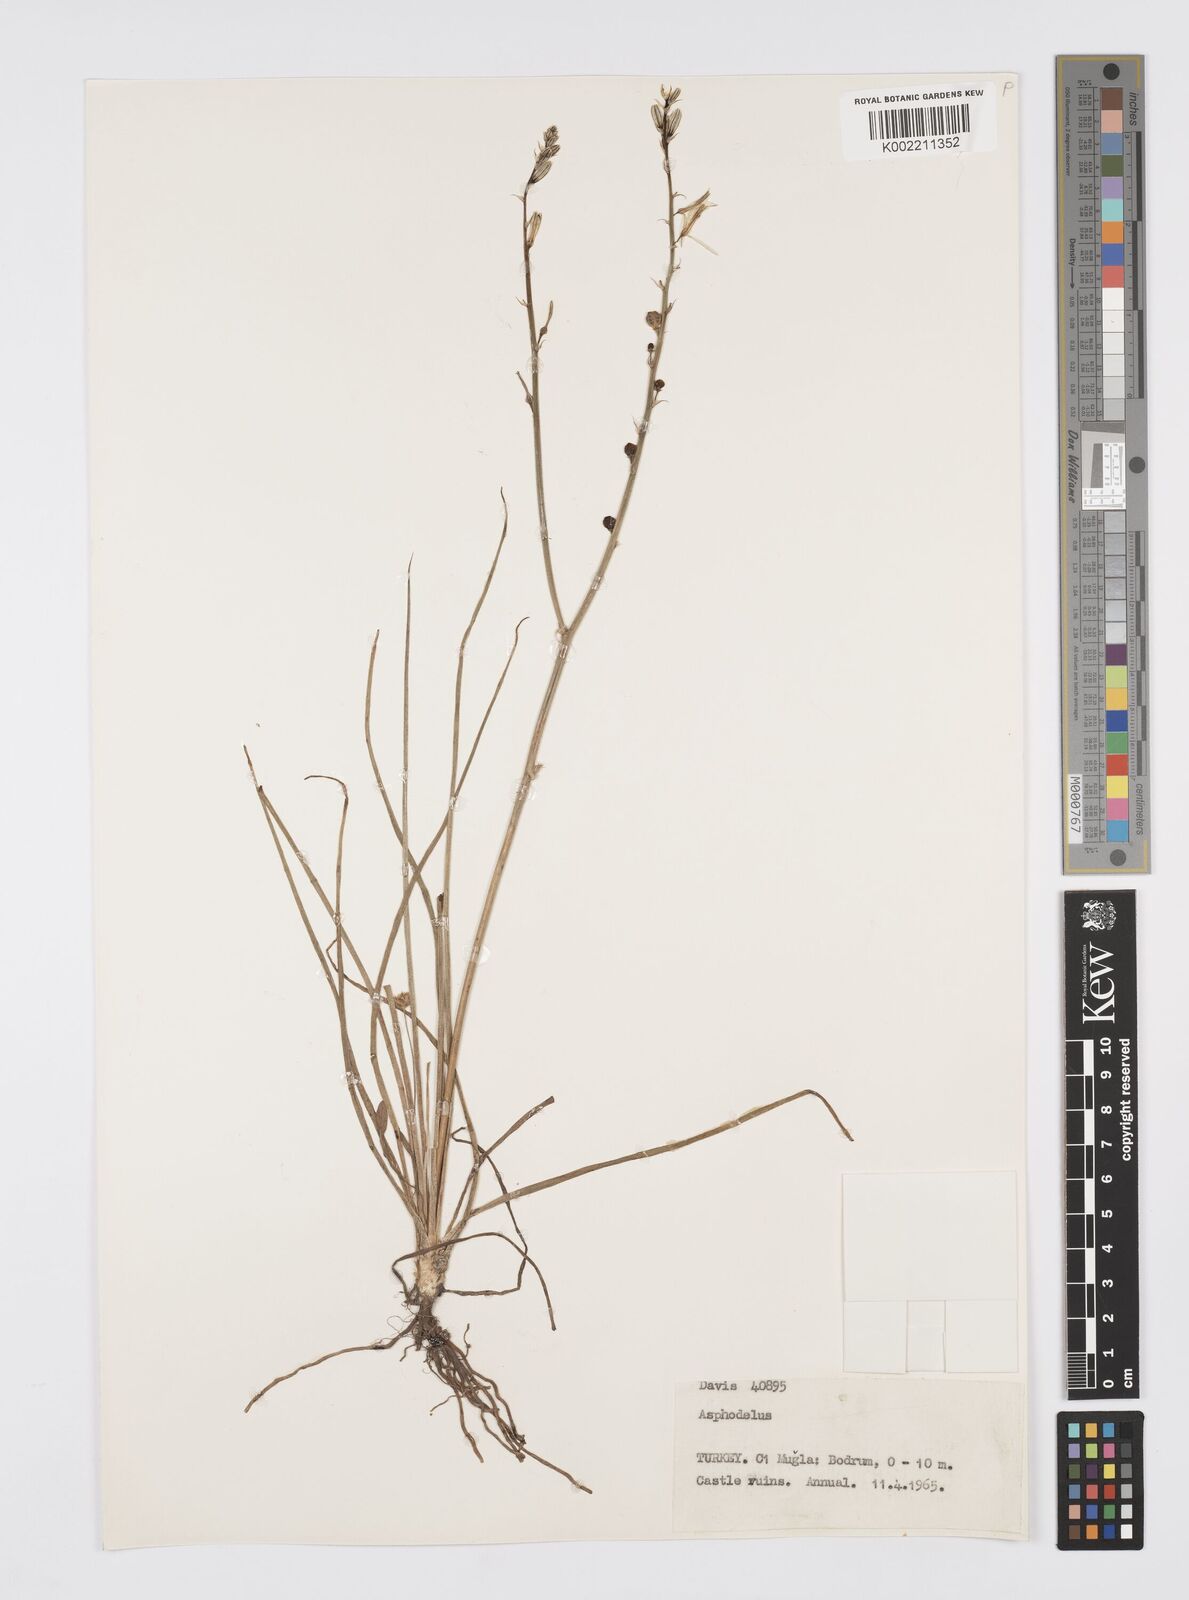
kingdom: Plantae
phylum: Tracheophyta
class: Liliopsida
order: Asparagales
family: Asphodelaceae
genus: Asphodelus
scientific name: Asphodelus tenuifolius
